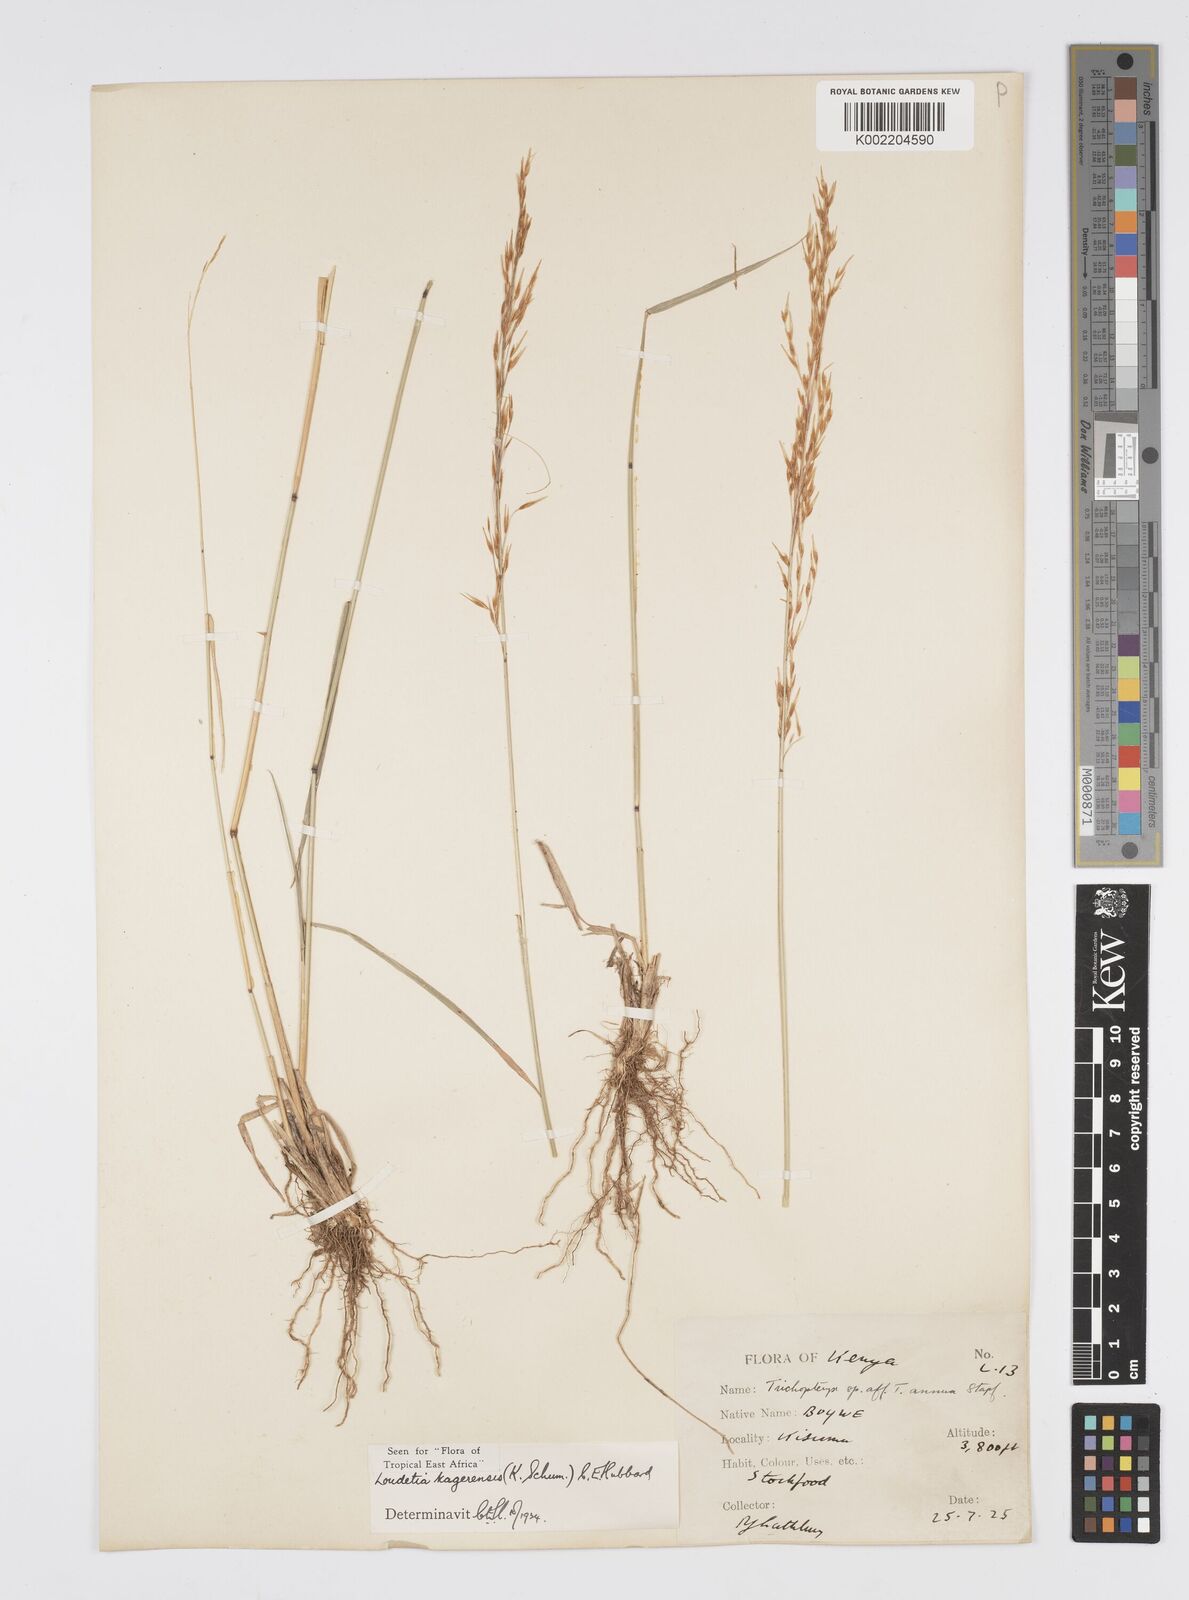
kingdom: Plantae
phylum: Tracheophyta
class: Liliopsida
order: Poales
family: Poaceae
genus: Loudetia
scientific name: Loudetia kagerensis
